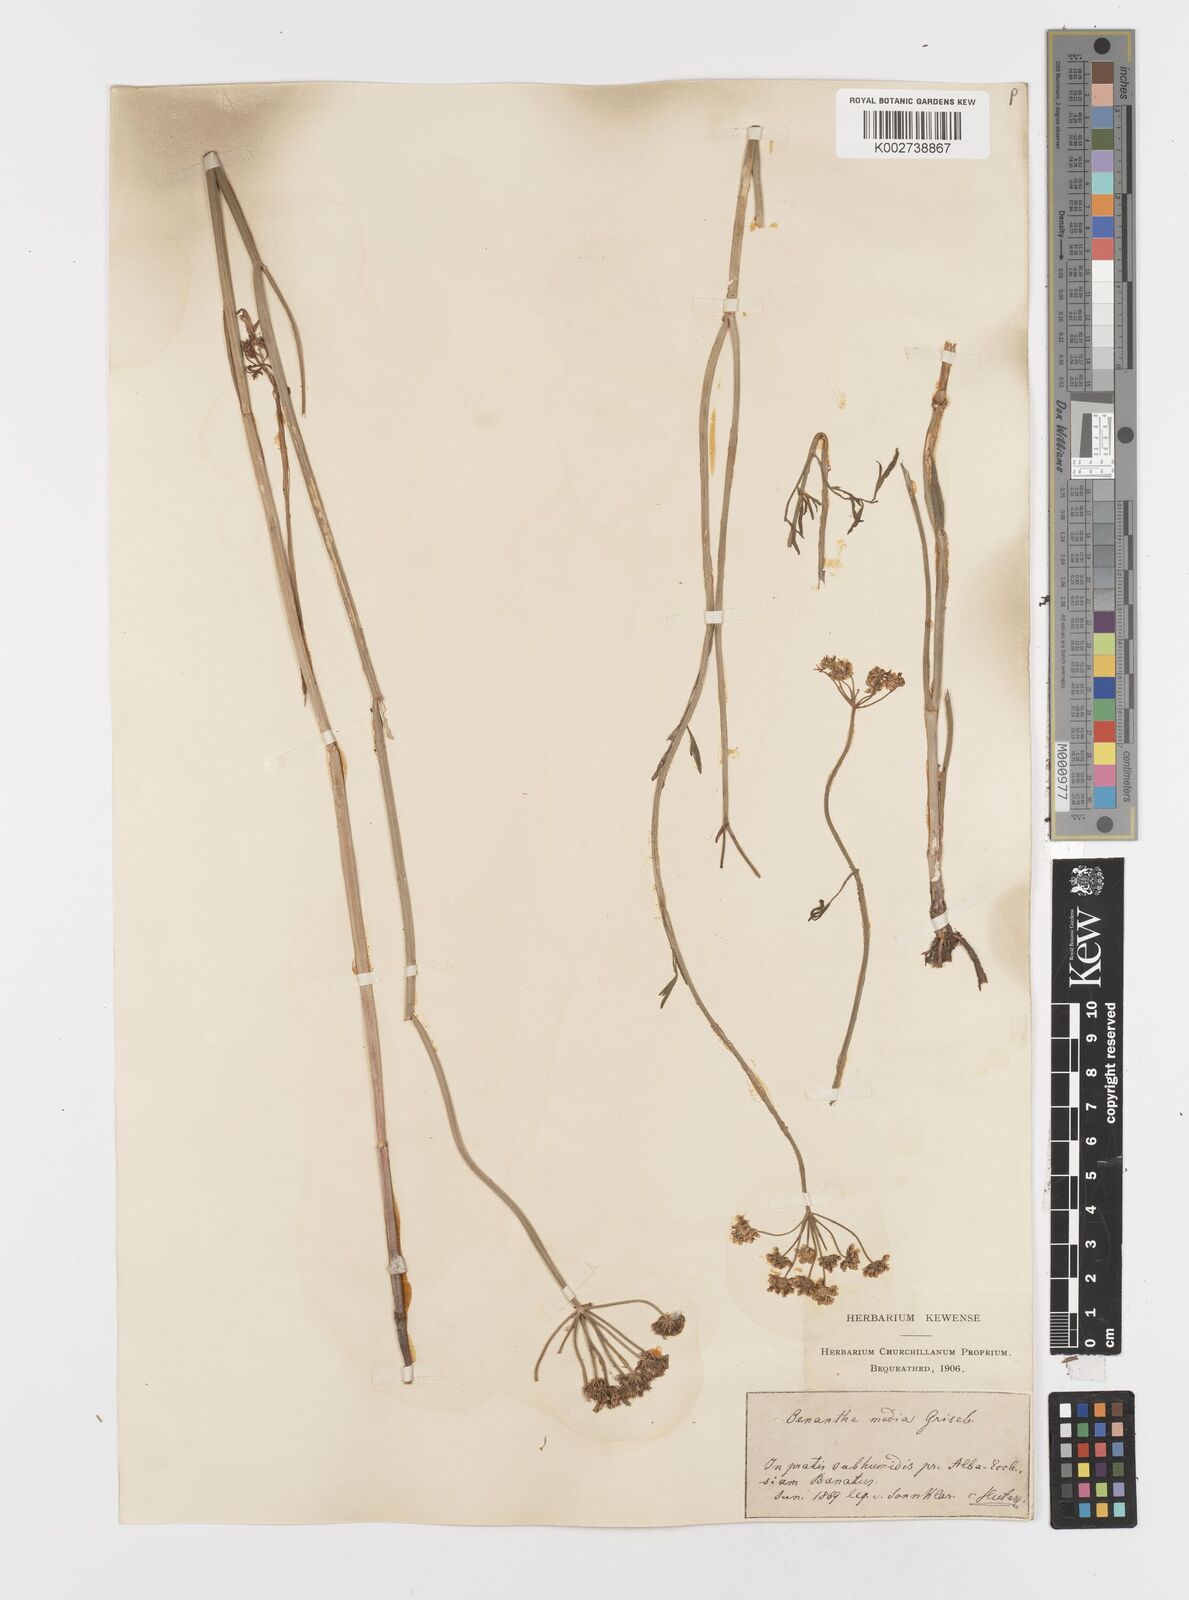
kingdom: Plantae
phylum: Tracheophyta
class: Magnoliopsida
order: Apiales
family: Apiaceae
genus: Oenanthe
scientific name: Oenanthe silaifolia
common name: Narrow-leaved water-dropwort
